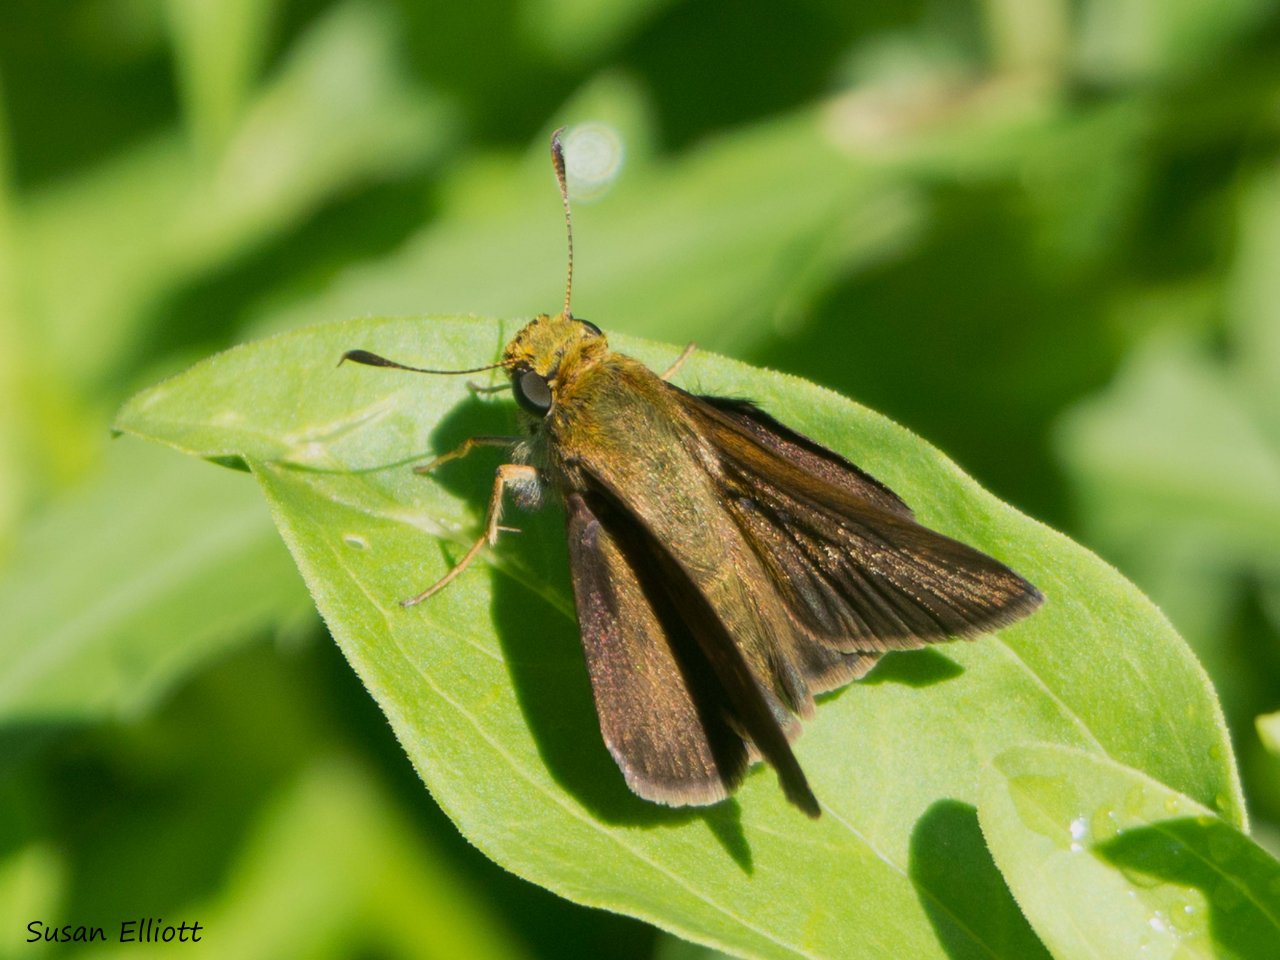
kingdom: Animalia
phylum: Arthropoda
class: Insecta
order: Lepidoptera
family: Hesperiidae
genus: Euphyes
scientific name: Euphyes vestris
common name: Dun Skipper
